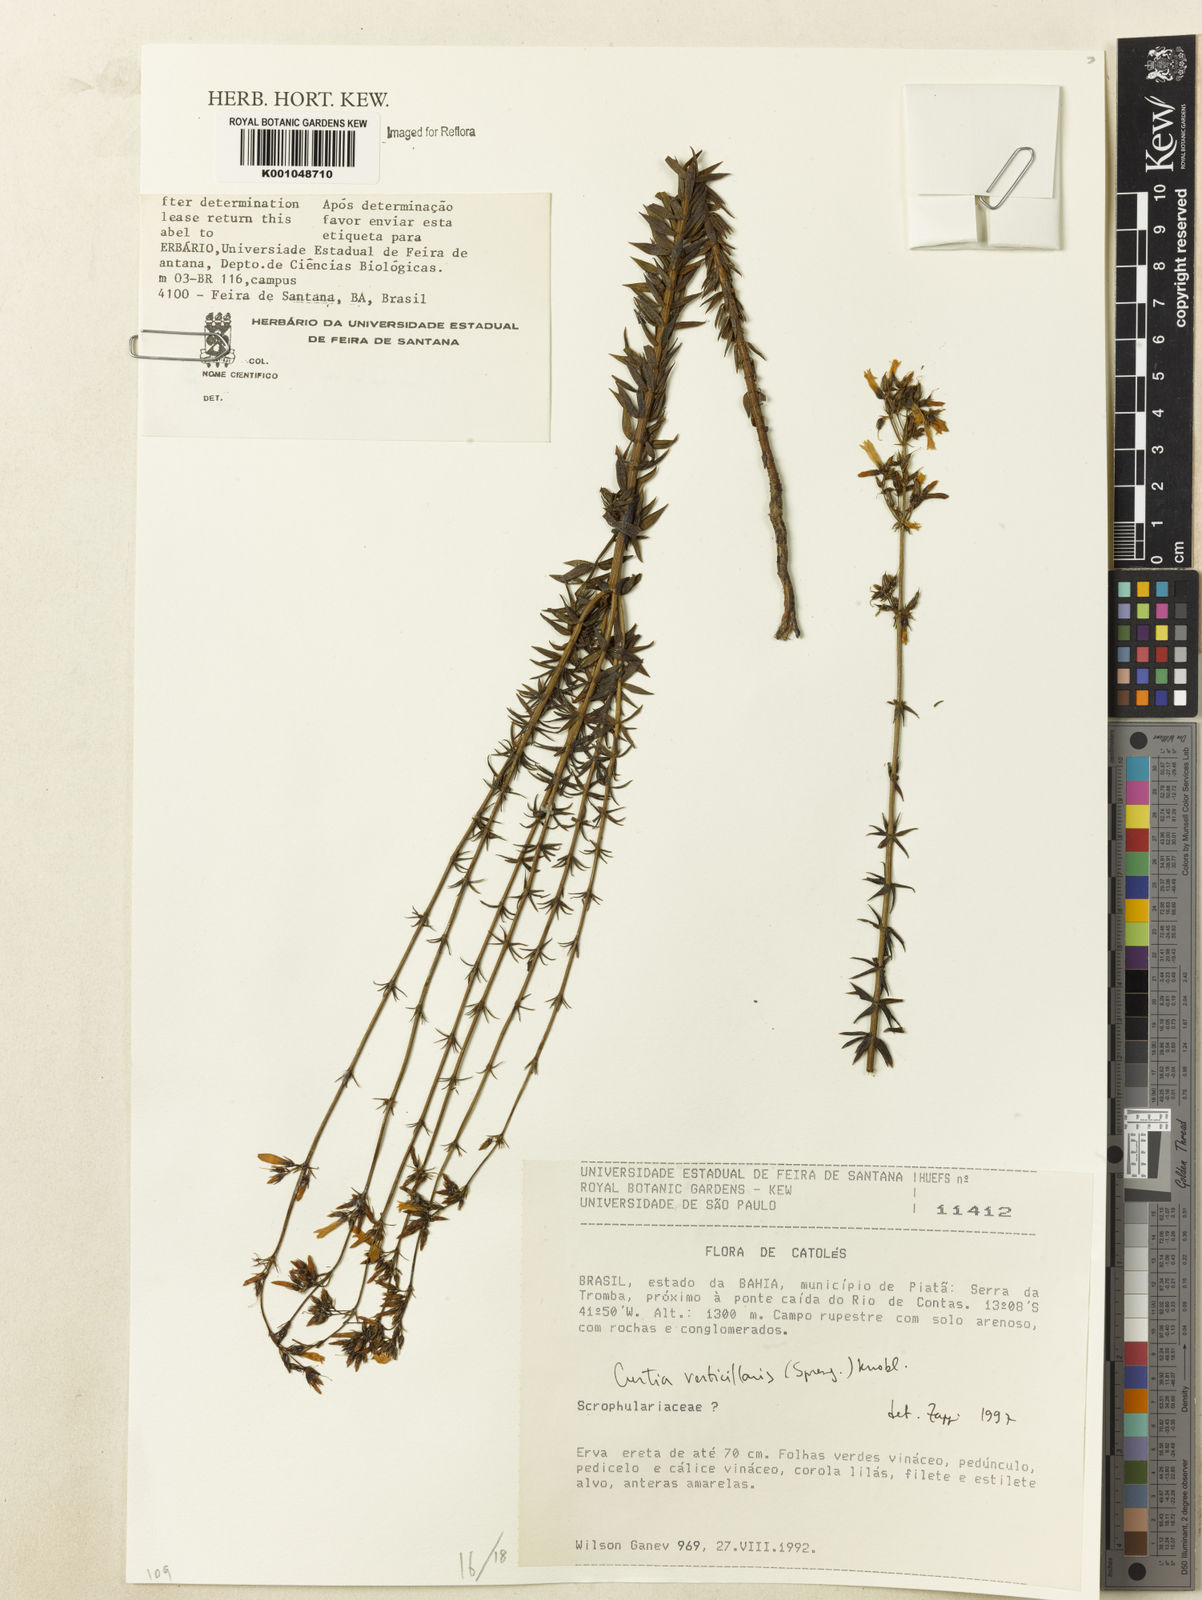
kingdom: Plantae
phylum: Tracheophyta
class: Magnoliopsida
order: Gentianales
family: Gentianaceae
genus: Curtia
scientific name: Curtia verticillaris
